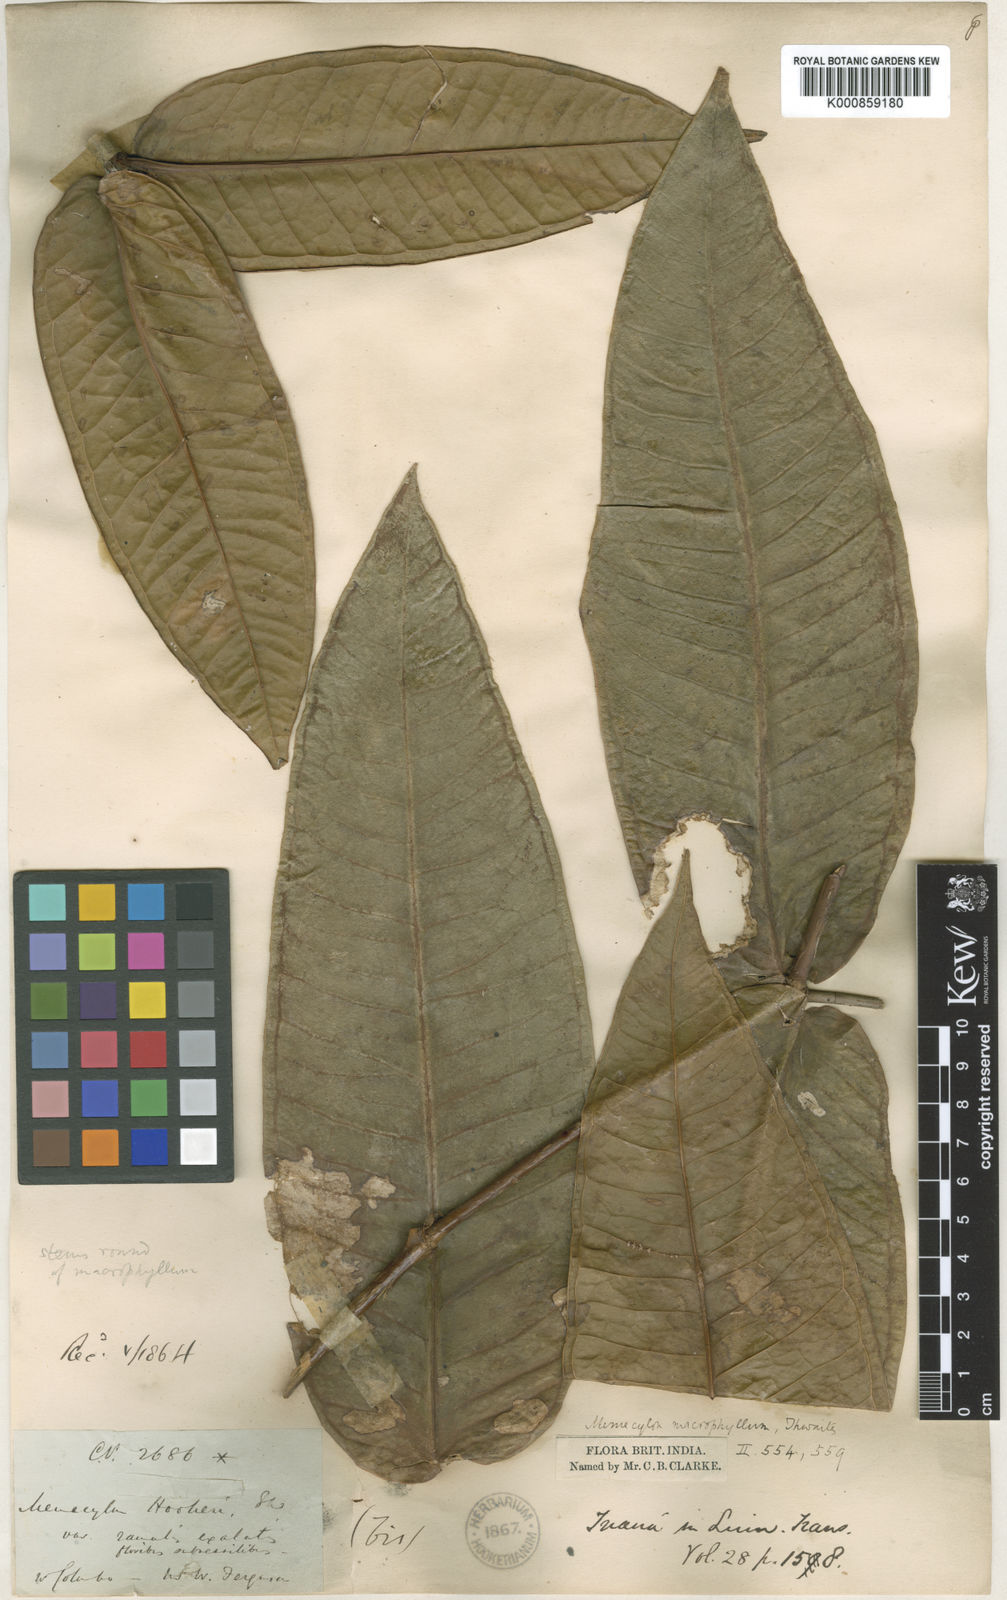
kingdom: Plantae
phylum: Tracheophyta
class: Magnoliopsida
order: Myrtales
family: Melastomataceae
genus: Memecylon
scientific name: Memecylon hookeri
